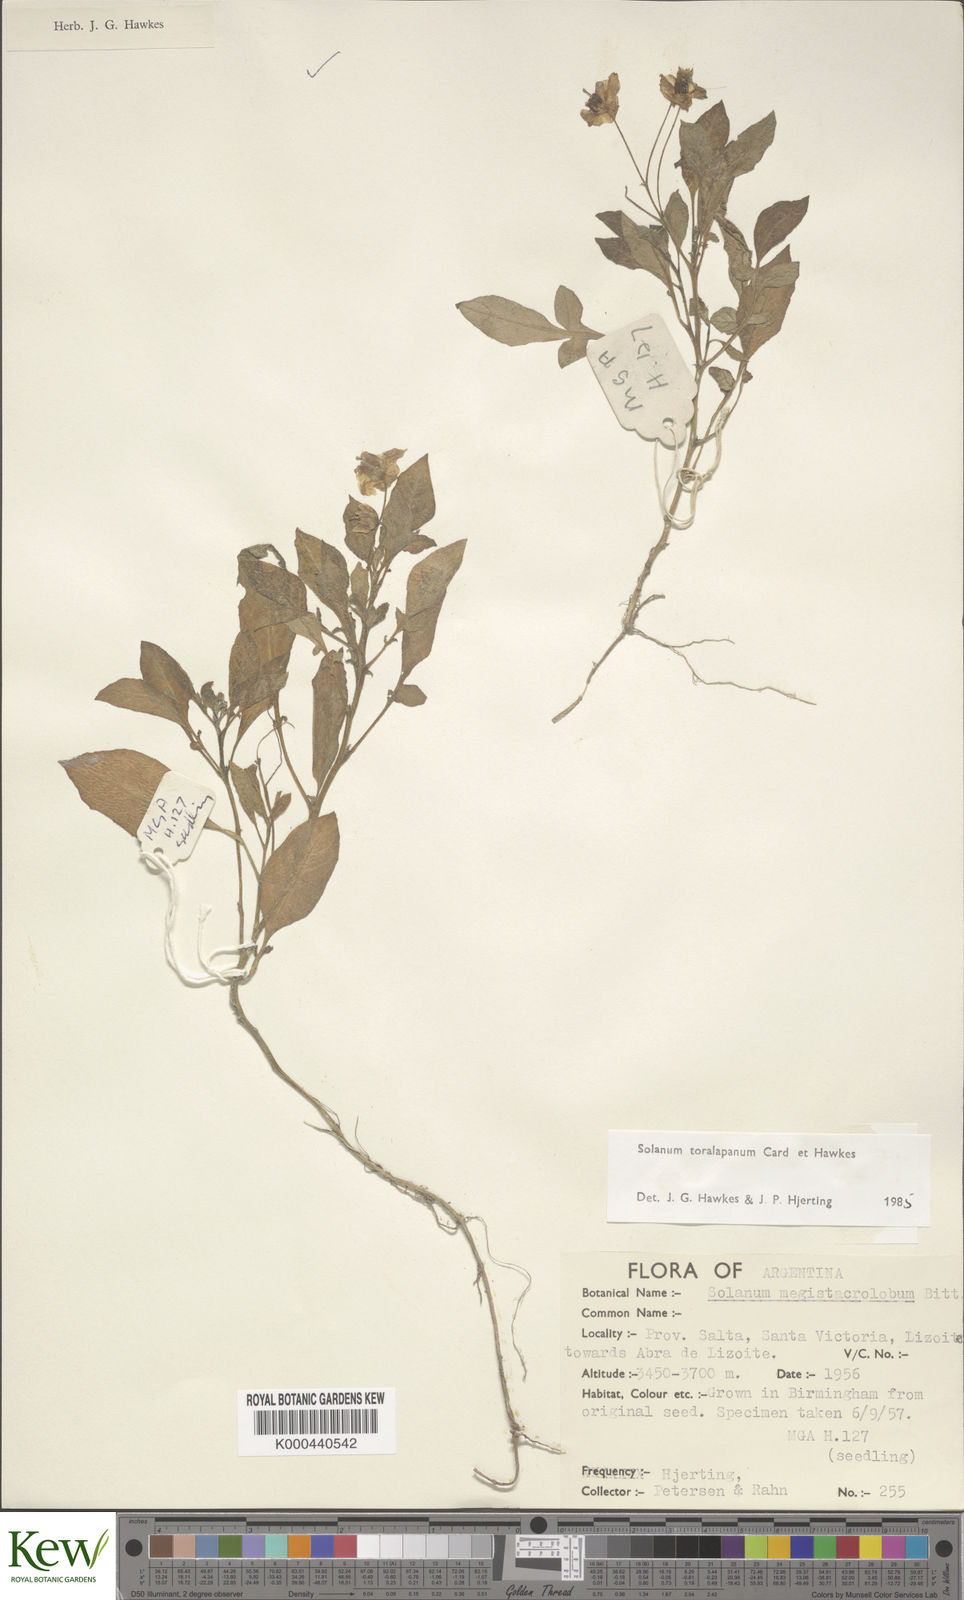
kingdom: Plantae
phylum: Tracheophyta
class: Magnoliopsida
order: Solanales
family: Solanaceae
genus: Solanum
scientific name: Solanum
